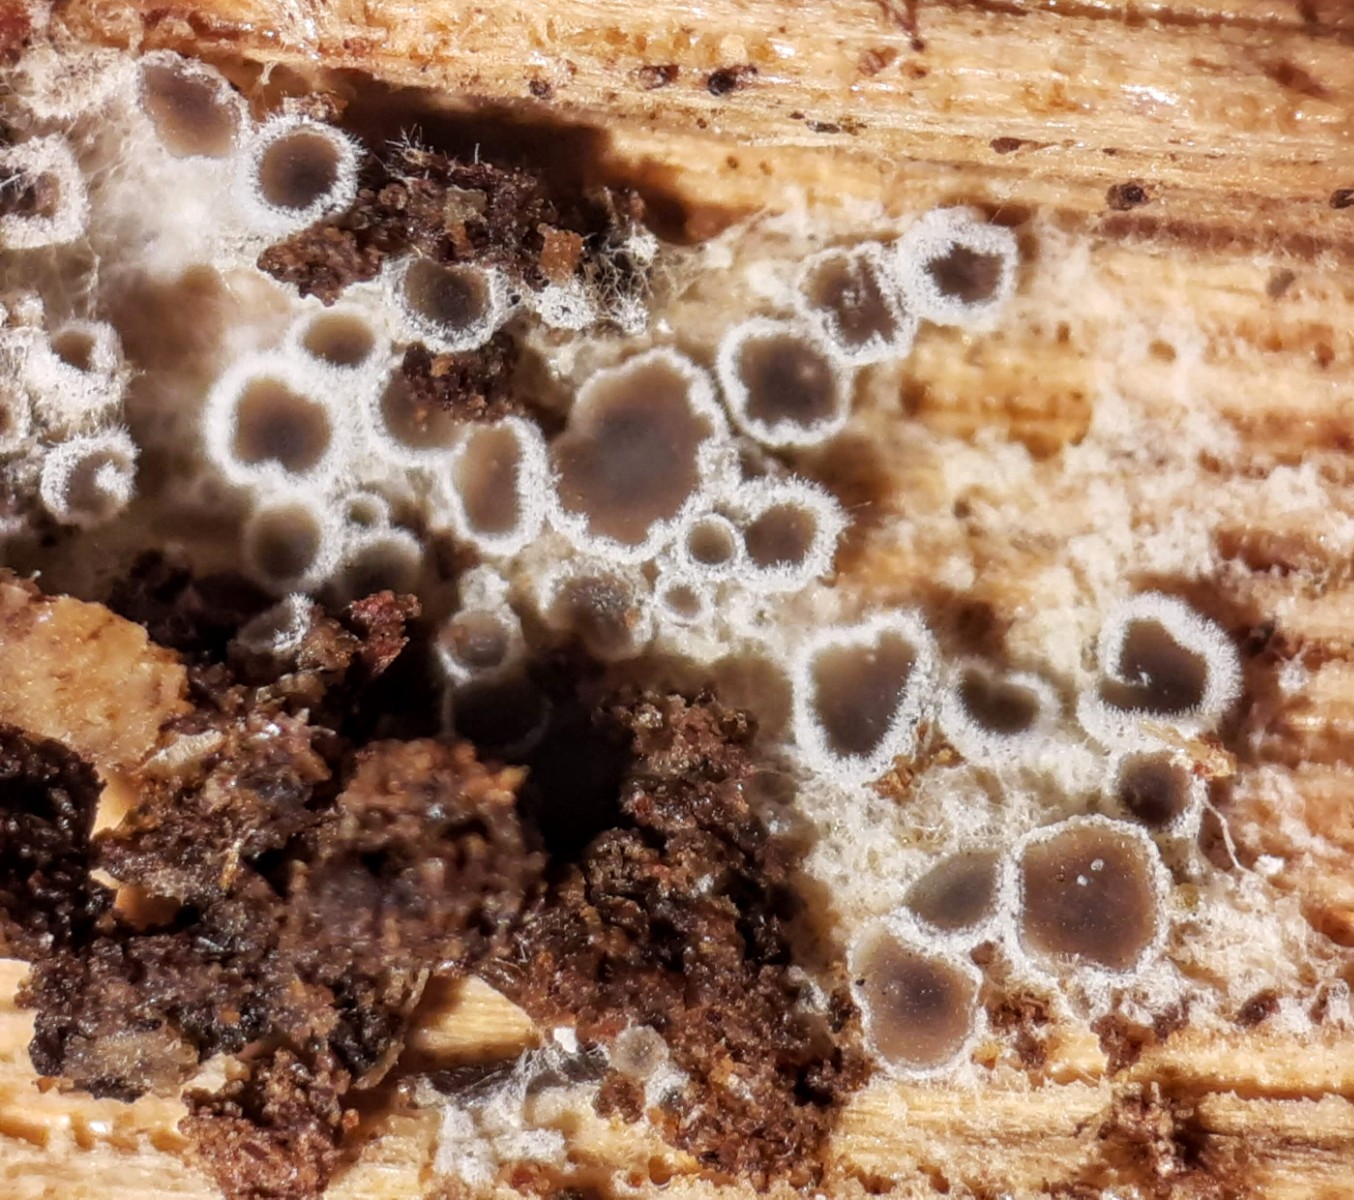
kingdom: Fungi
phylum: Ascomycota
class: Leotiomycetes
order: Helotiales
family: Arachnopezizaceae
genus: Eriopezia
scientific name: Eriopezia caesia
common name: ege-spindskive
